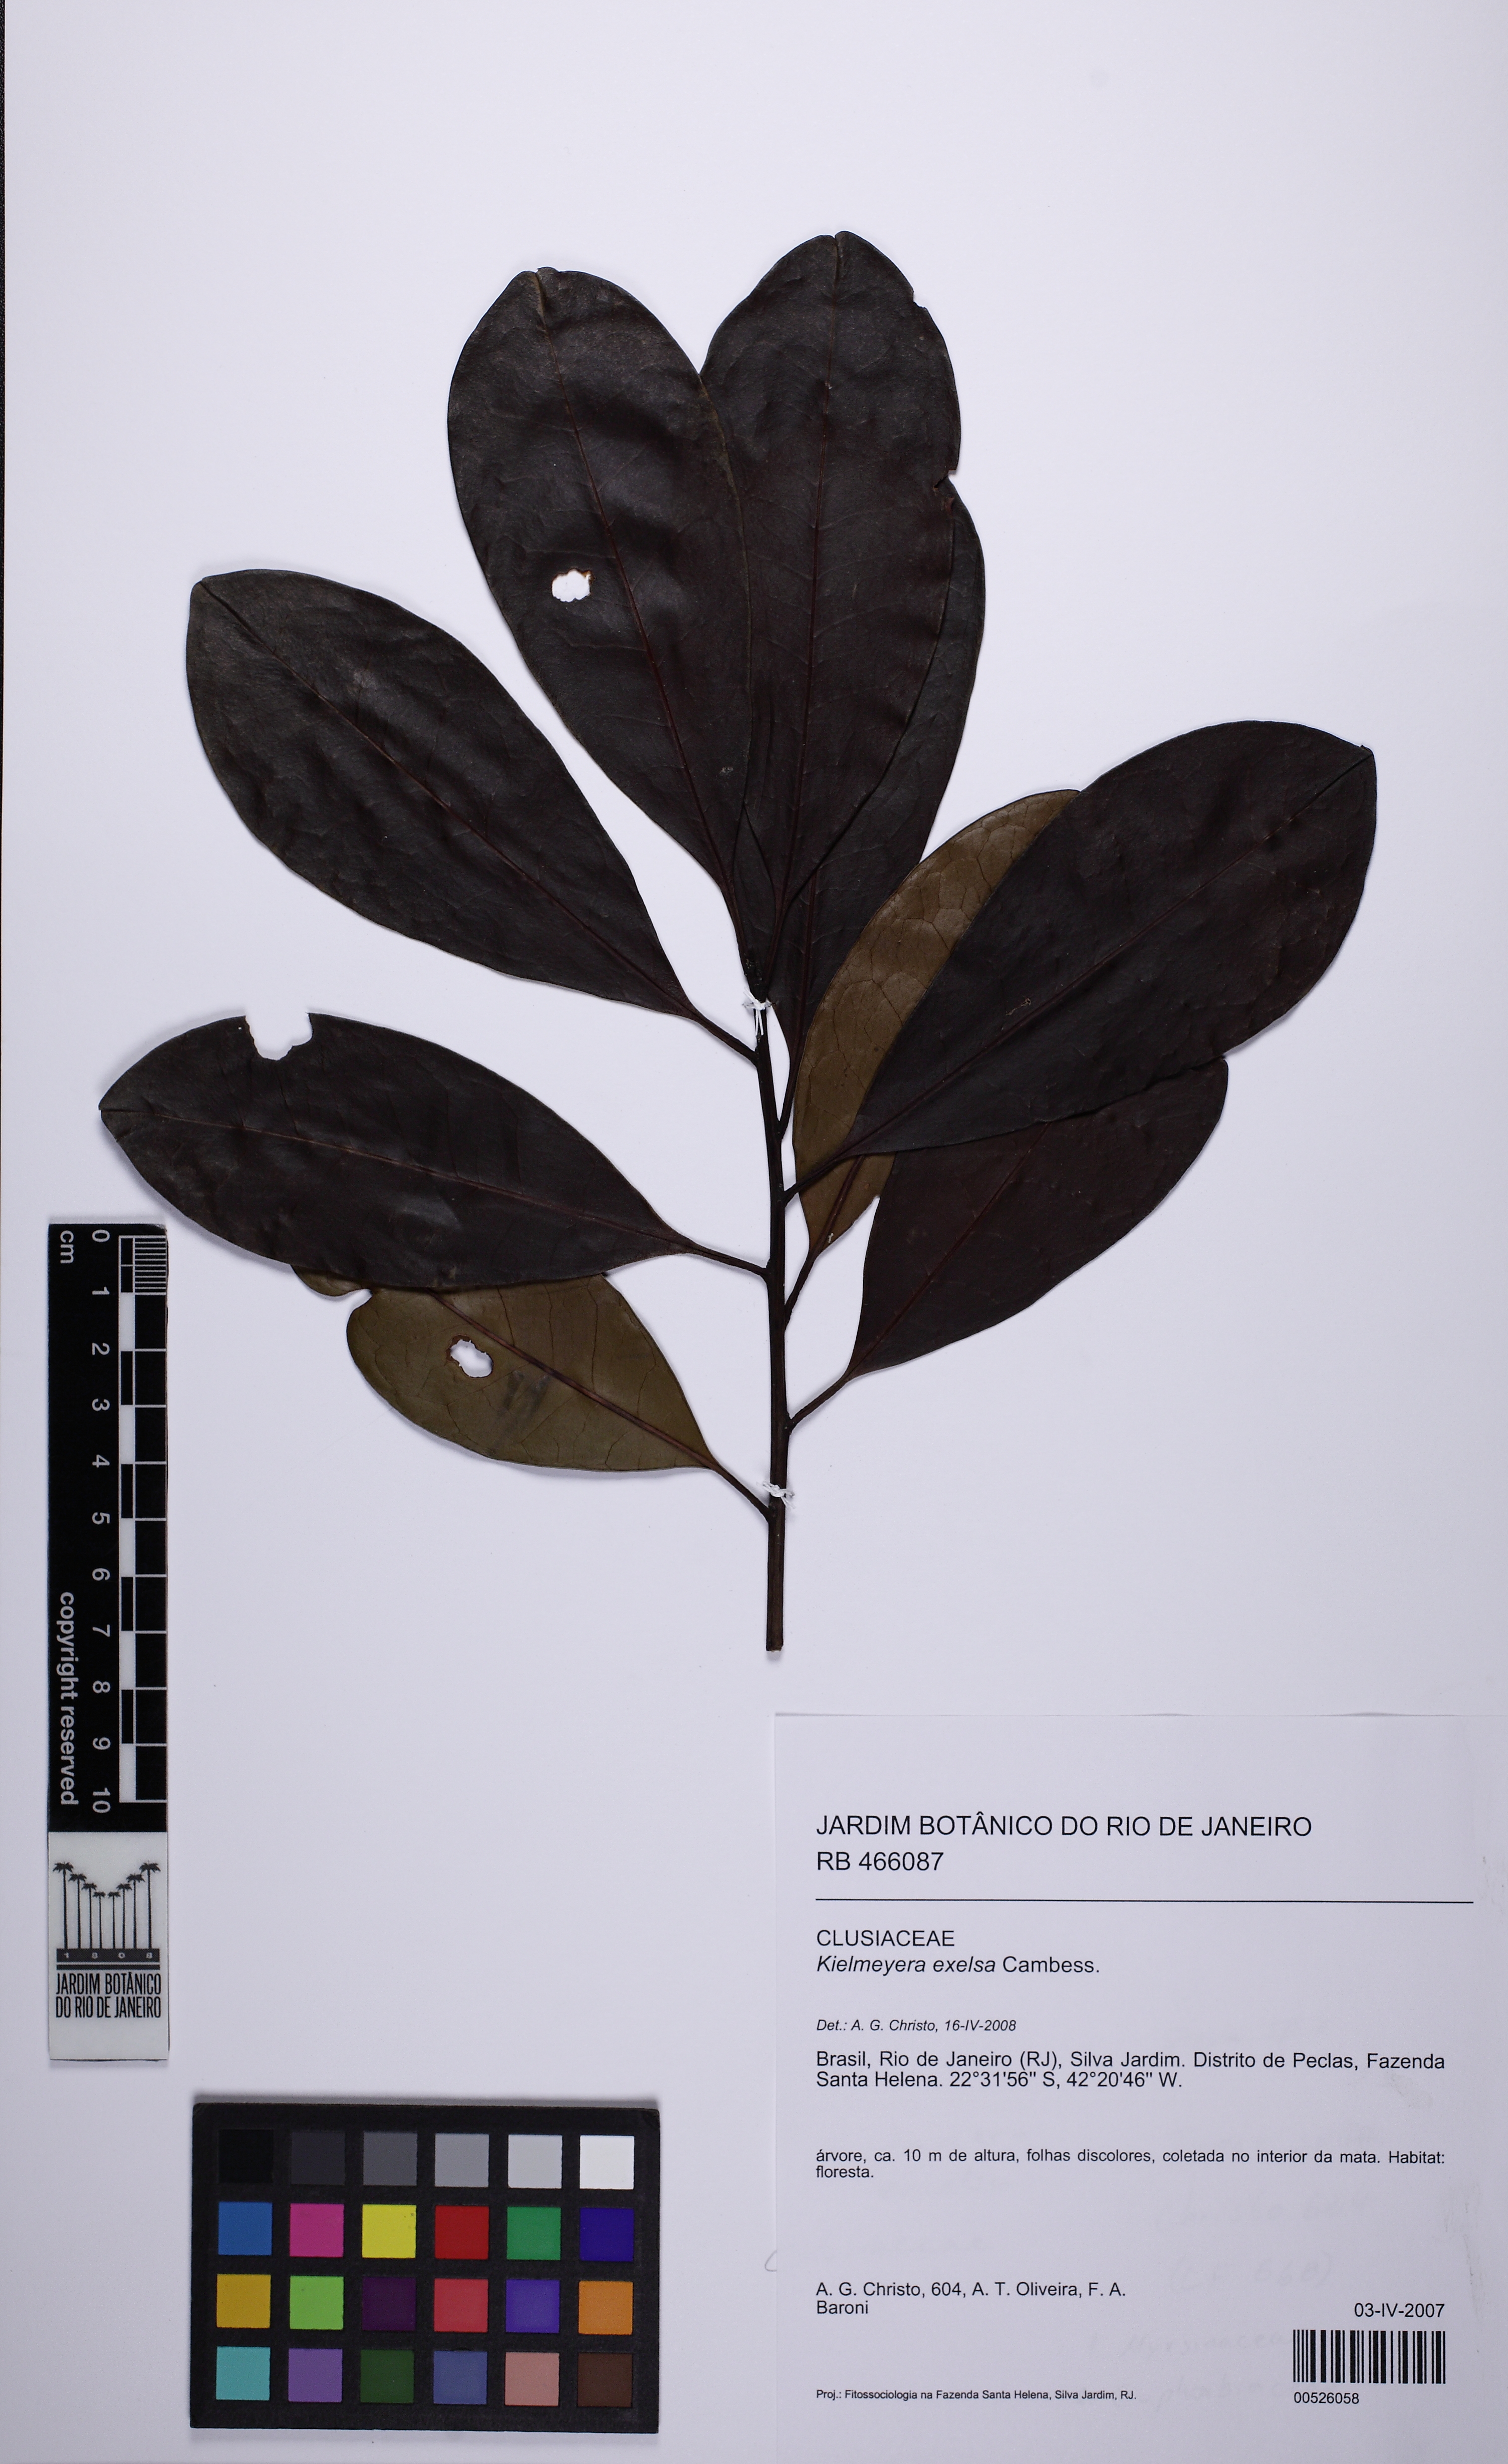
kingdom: Plantae
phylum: Tracheophyta
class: Magnoliopsida
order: Malpighiales
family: Clusiaceae
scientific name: Clusiaceae
